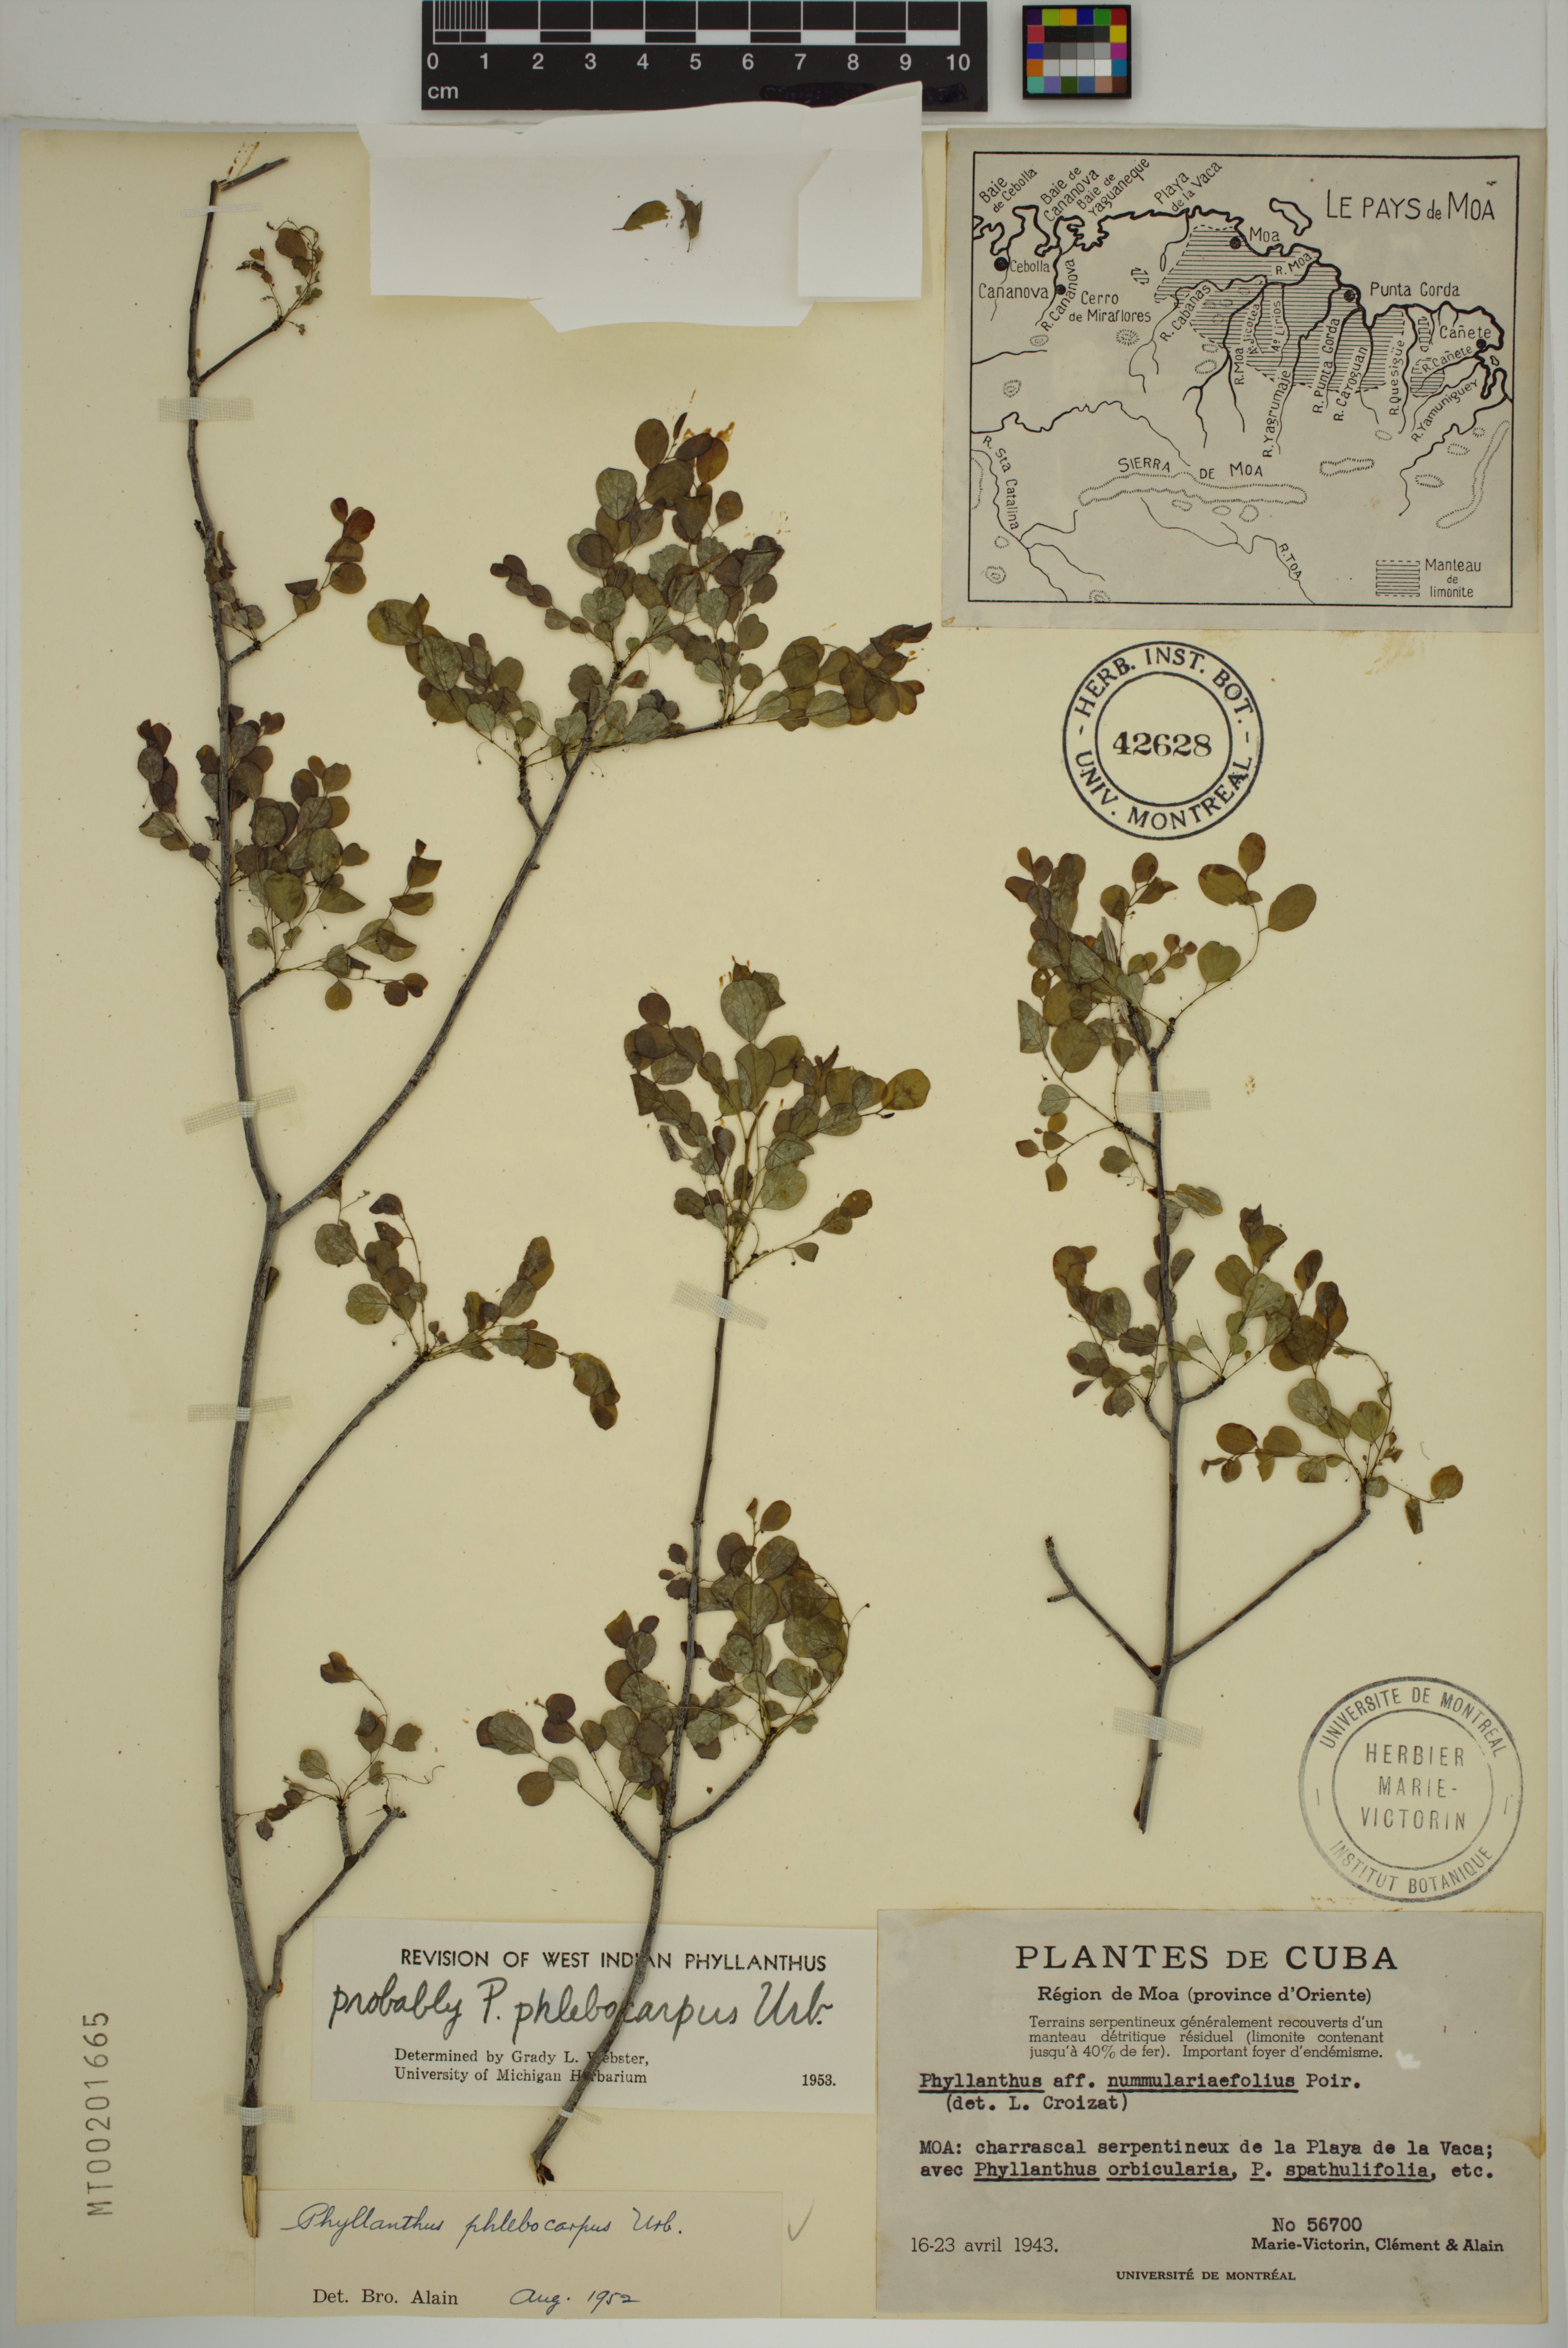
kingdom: Plantae
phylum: Tracheophyta
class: Magnoliopsida
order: Malpighiales
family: Phyllanthaceae
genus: Phyllanthus
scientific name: Phyllanthus phlebocarpus
